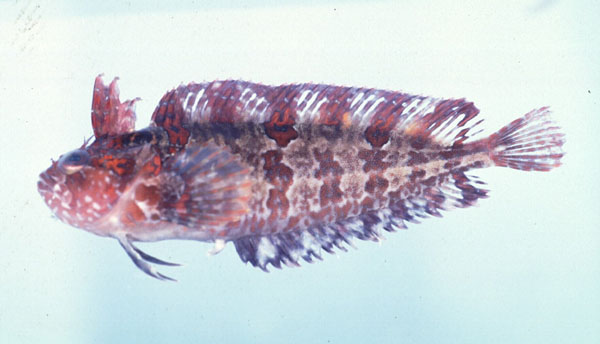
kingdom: Animalia
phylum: Chordata
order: Perciformes
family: Clinidae
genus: Clinus
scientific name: Clinus woodi
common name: Oldman klipfish
